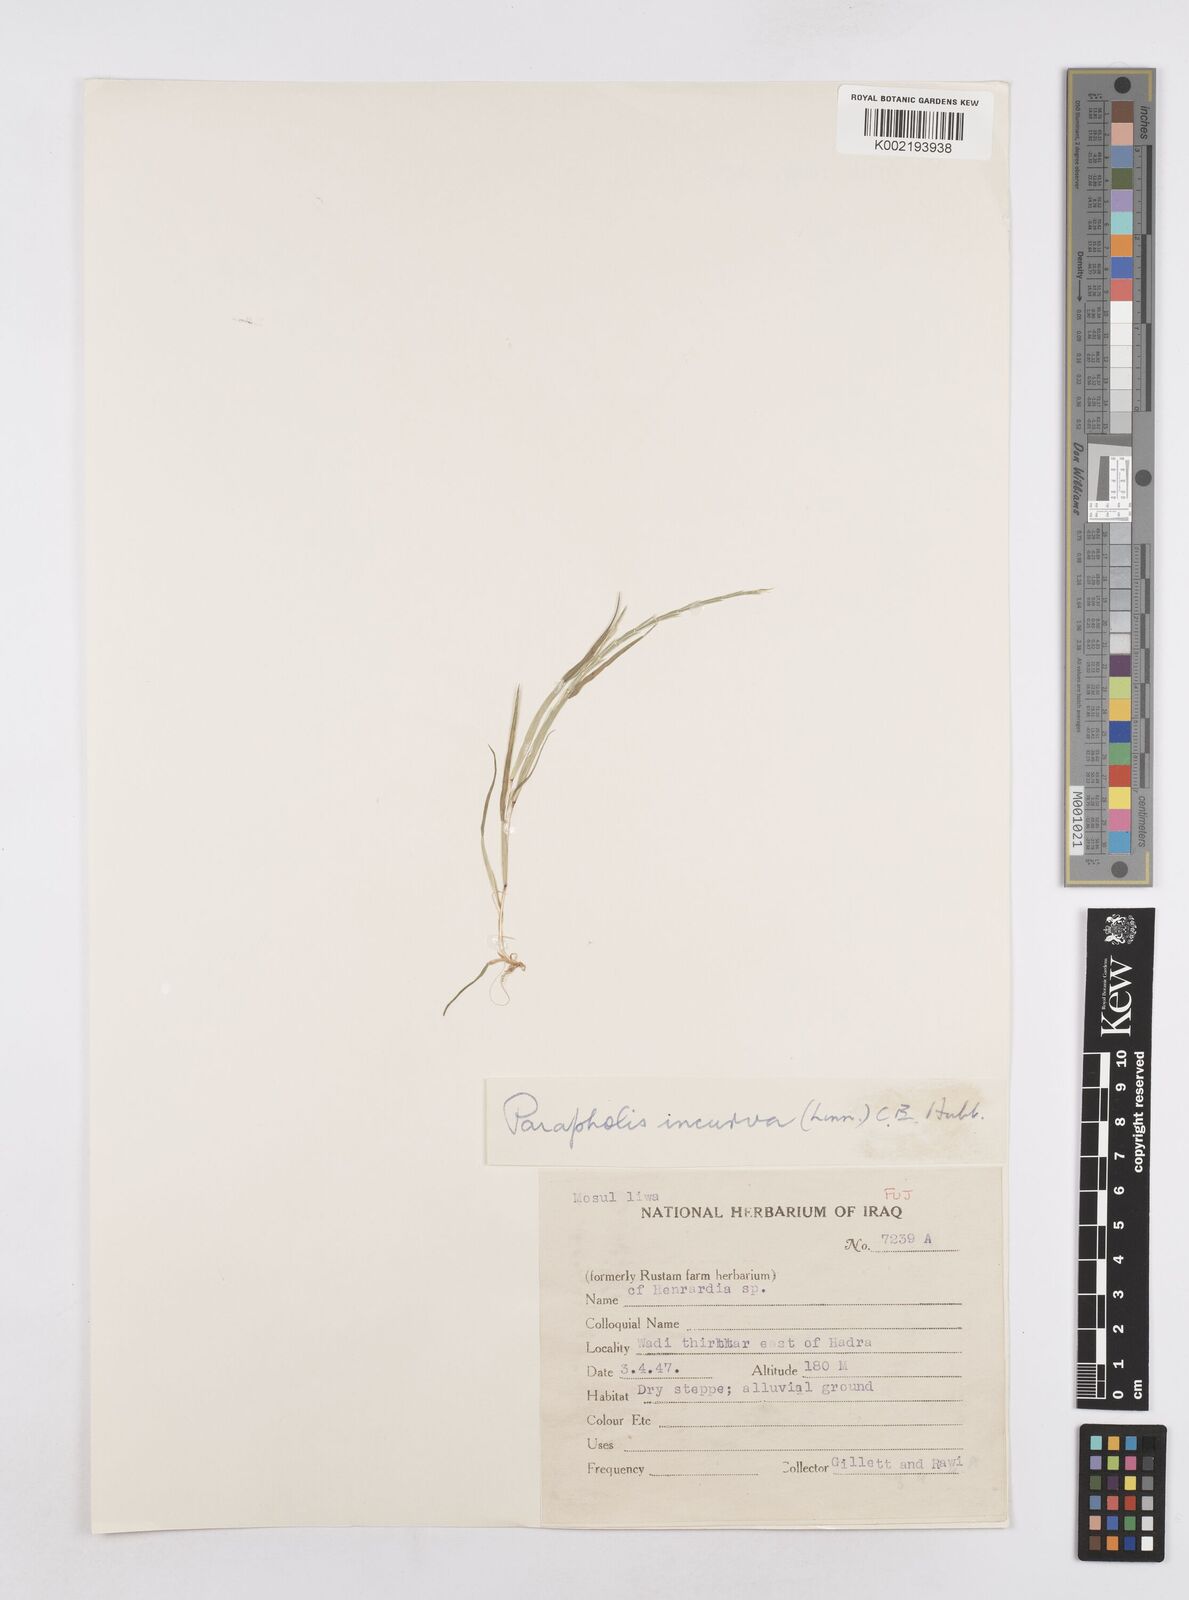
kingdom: Plantae
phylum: Tracheophyta
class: Liliopsida
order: Poales
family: Poaceae
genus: Parapholis
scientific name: Parapholis incurva
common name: Curved sicklegrass
